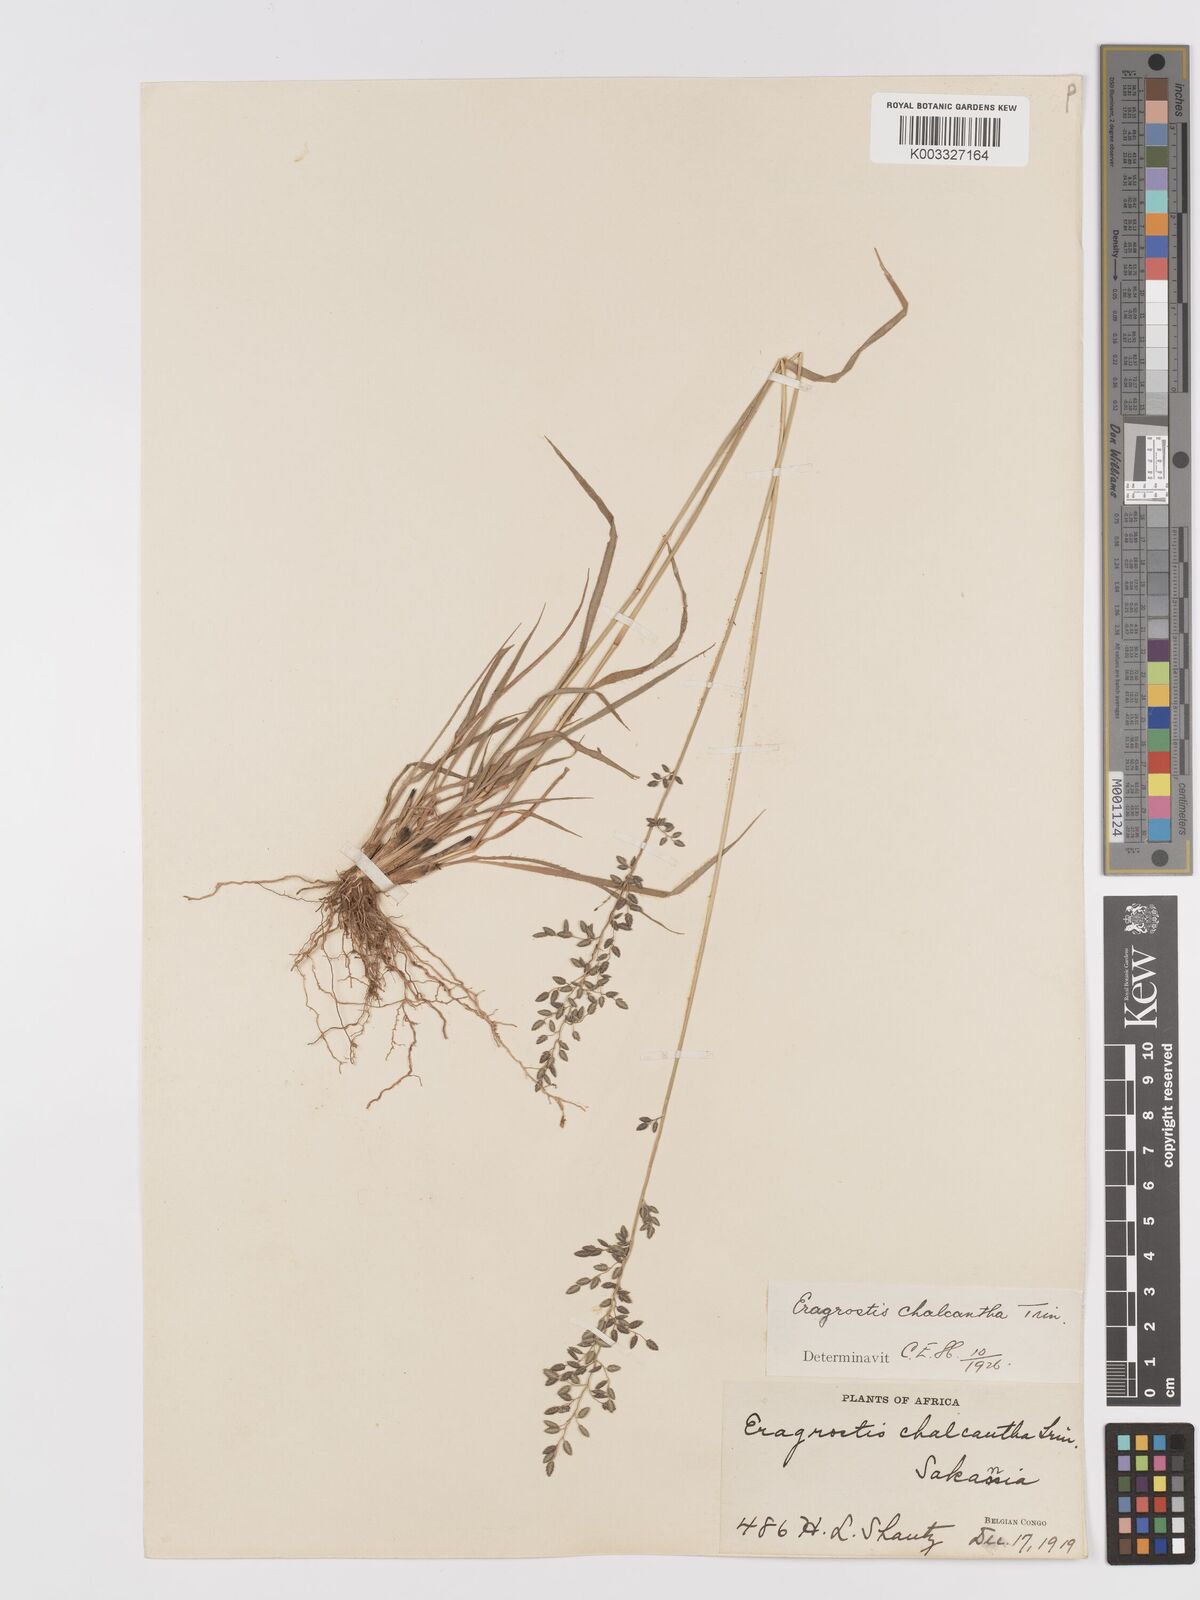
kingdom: Plantae
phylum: Tracheophyta
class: Liliopsida
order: Poales
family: Poaceae
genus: Eragrostis
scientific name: Eragrostis racemosa
